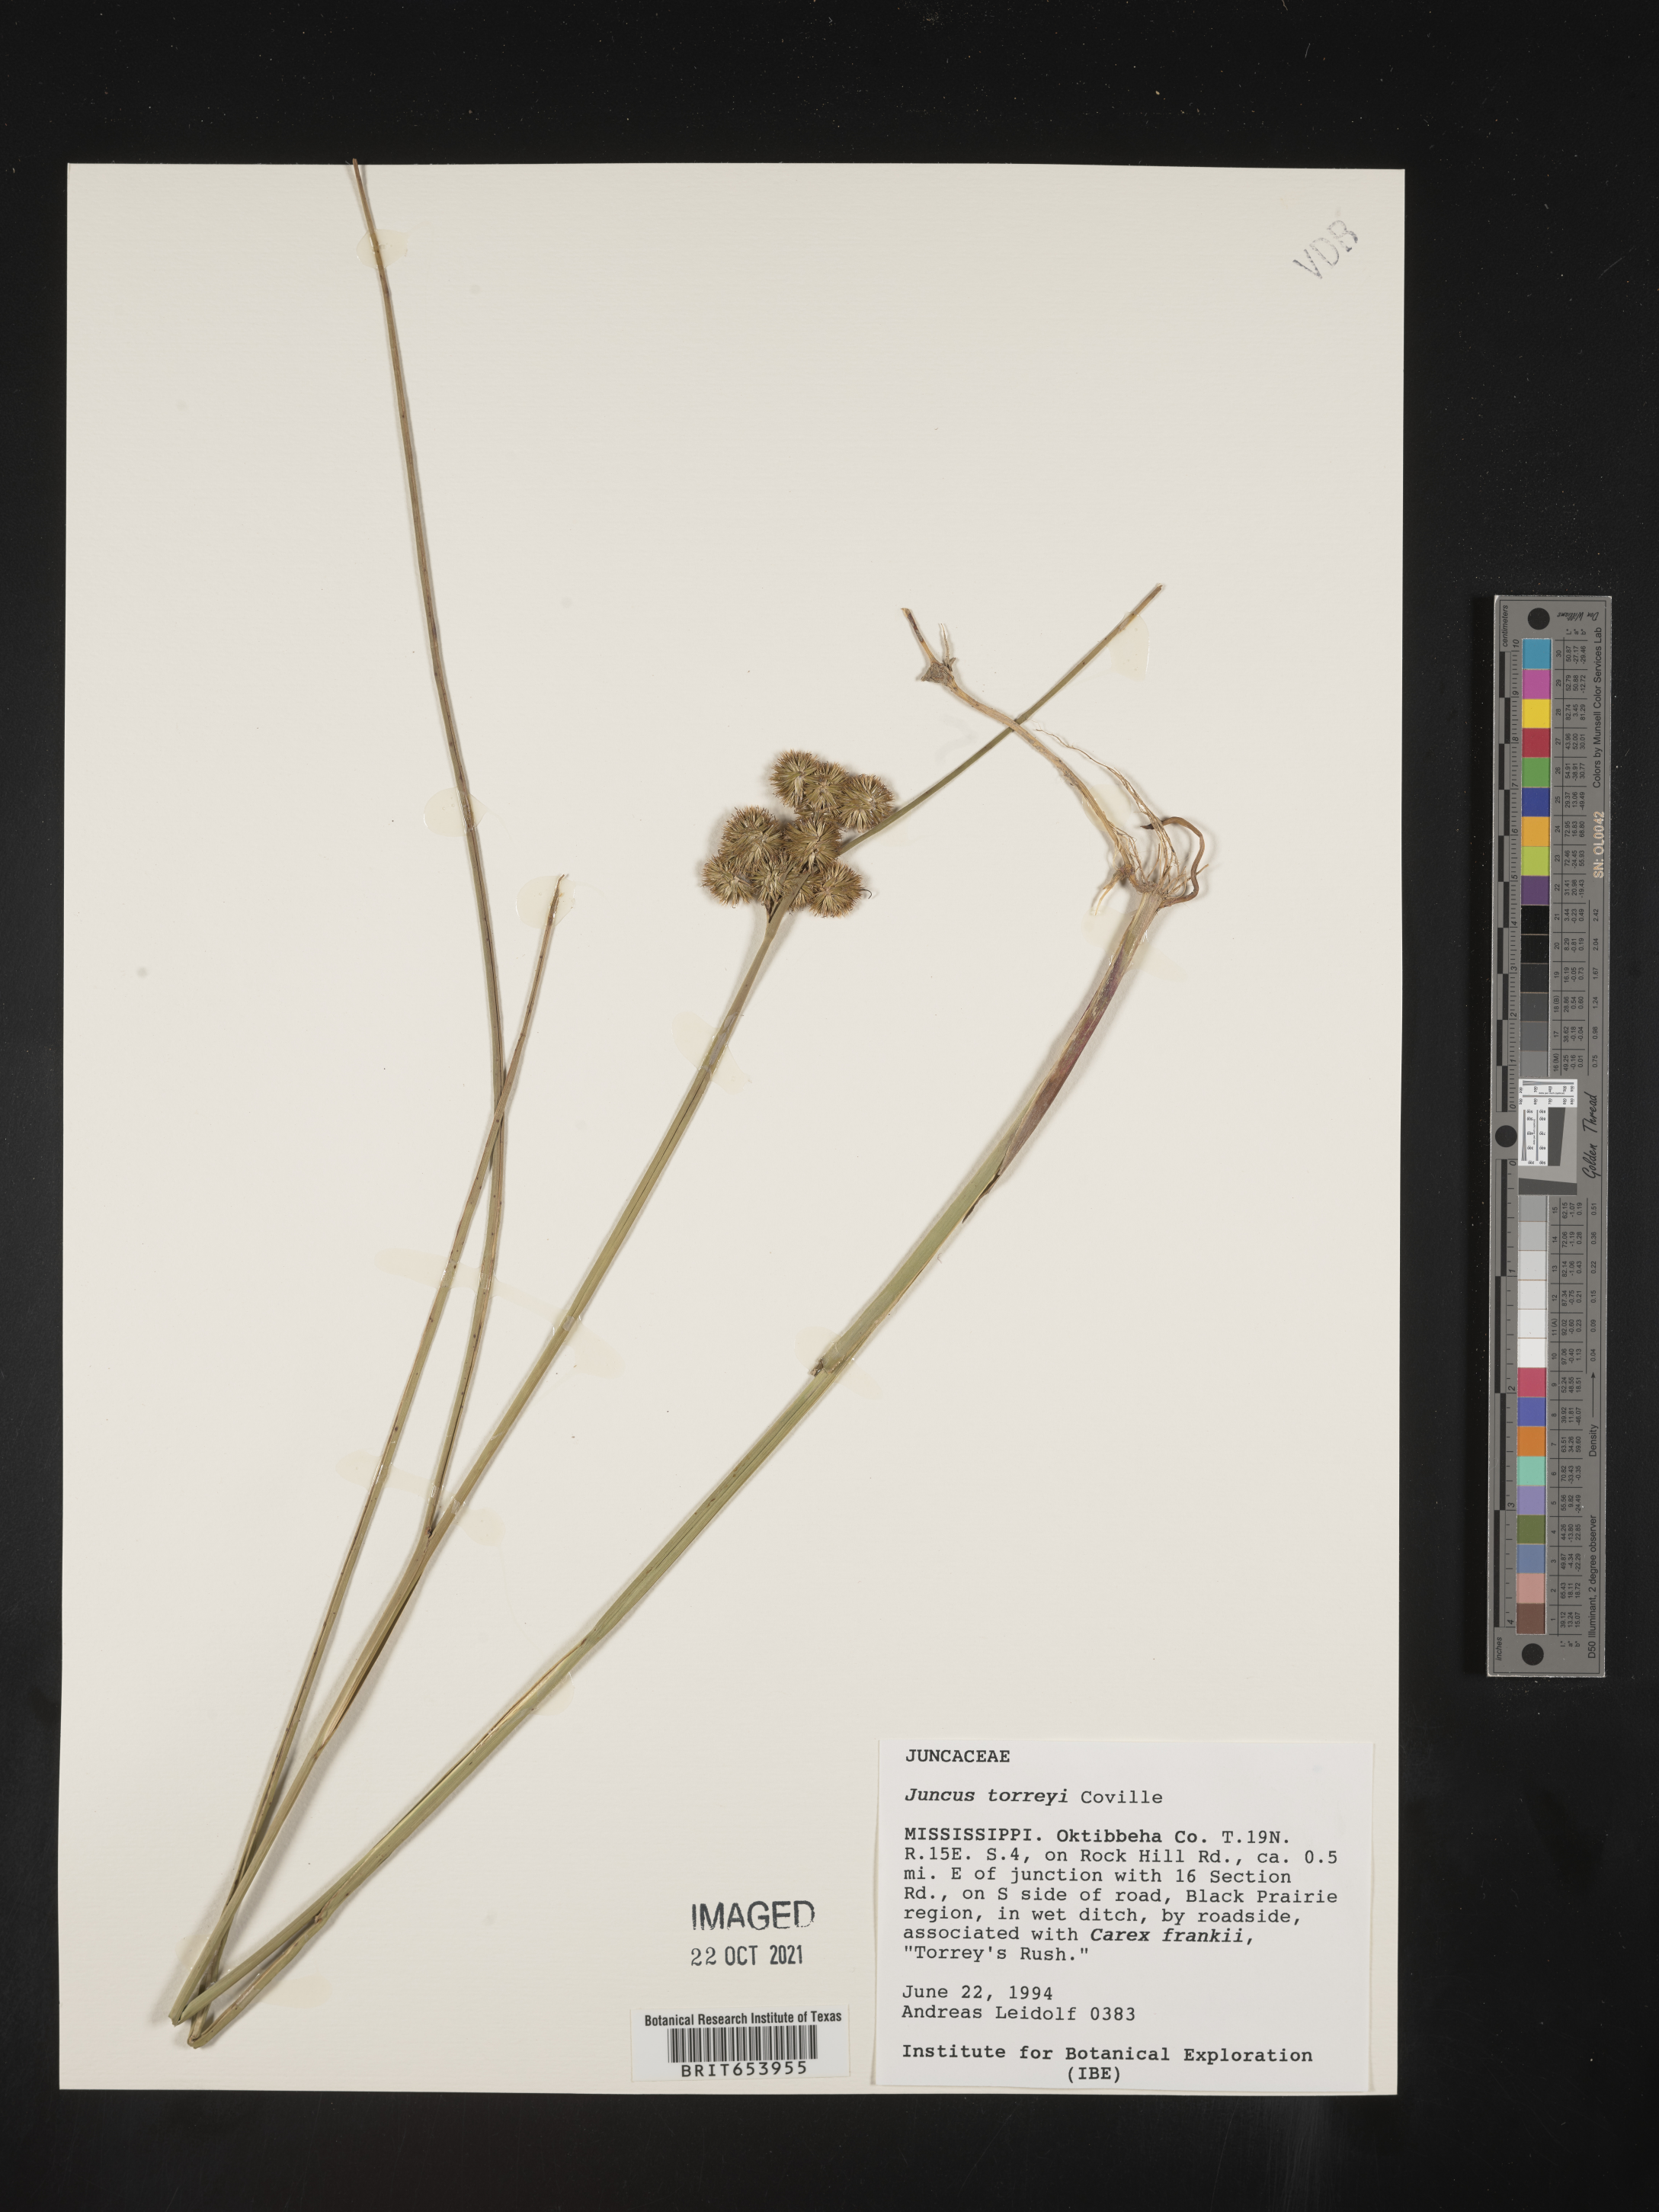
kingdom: Plantae
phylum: Tracheophyta
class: Liliopsida
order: Poales
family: Juncaceae
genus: Juncus
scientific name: Juncus torreyi
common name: Torrey's rush
